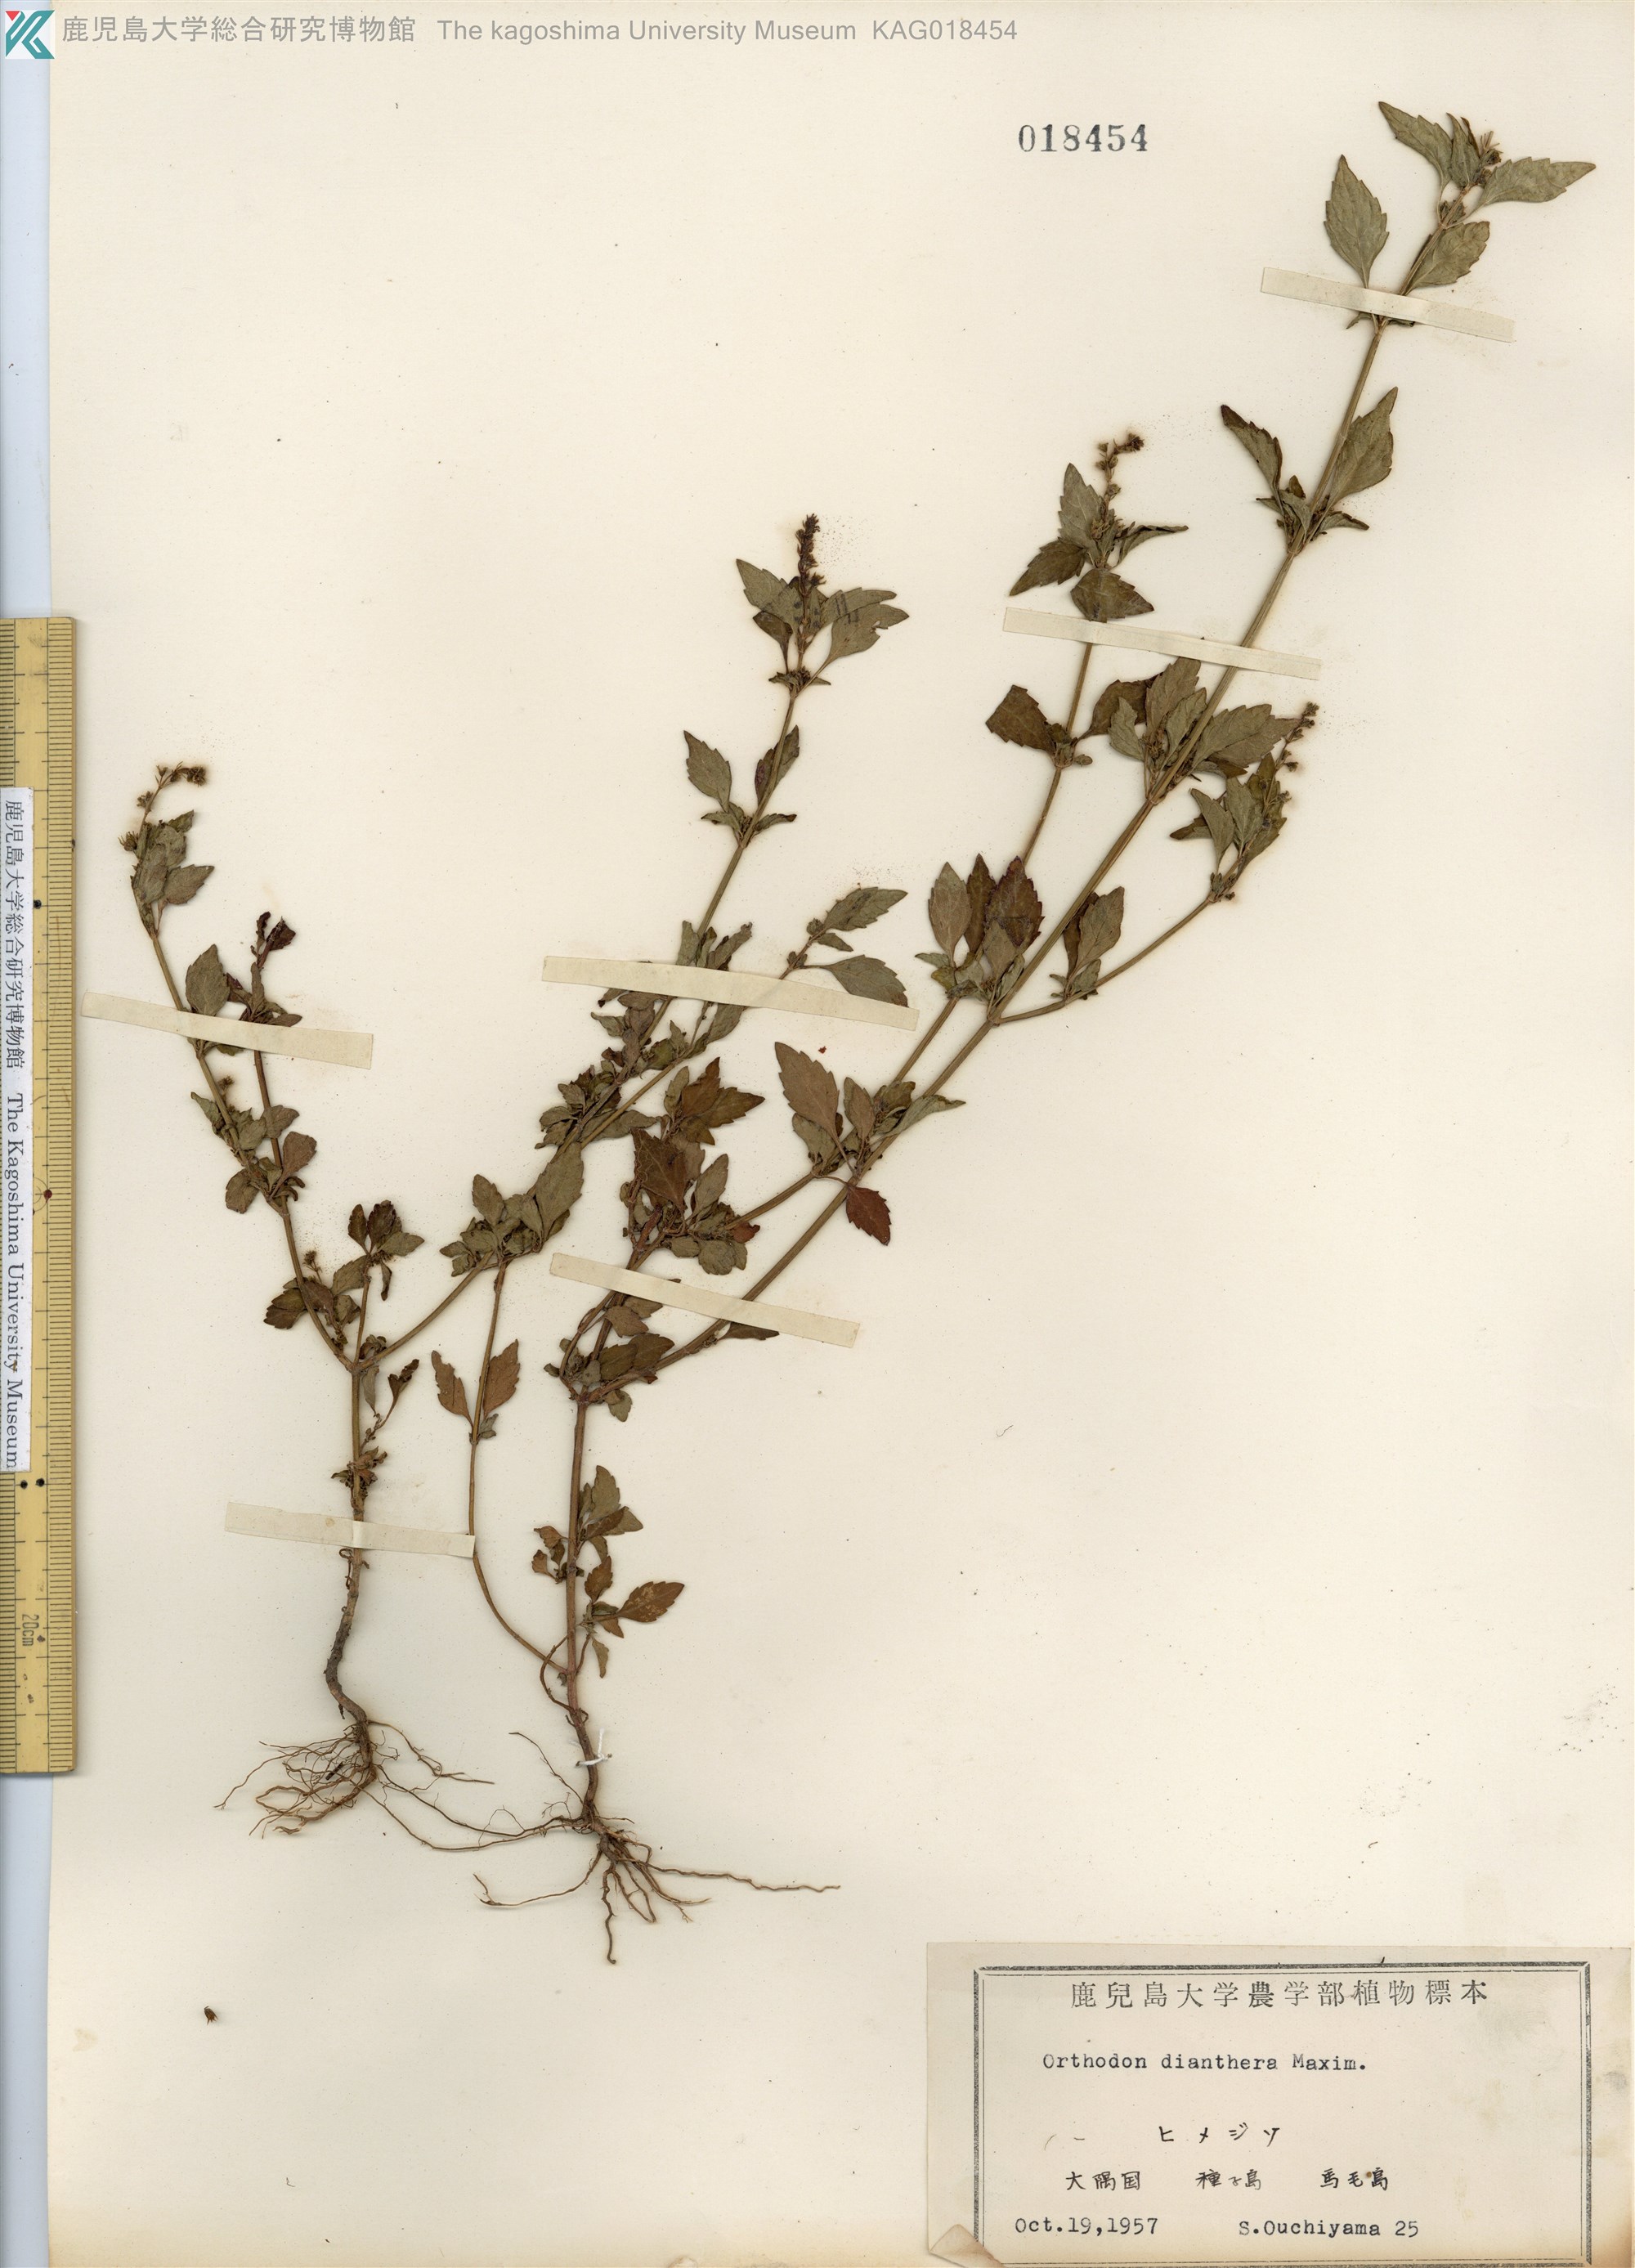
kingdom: Plantae
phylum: Tracheophyta
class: Magnoliopsida
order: Lamiales
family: Lamiaceae
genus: Mosla
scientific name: Mosla dianthera
